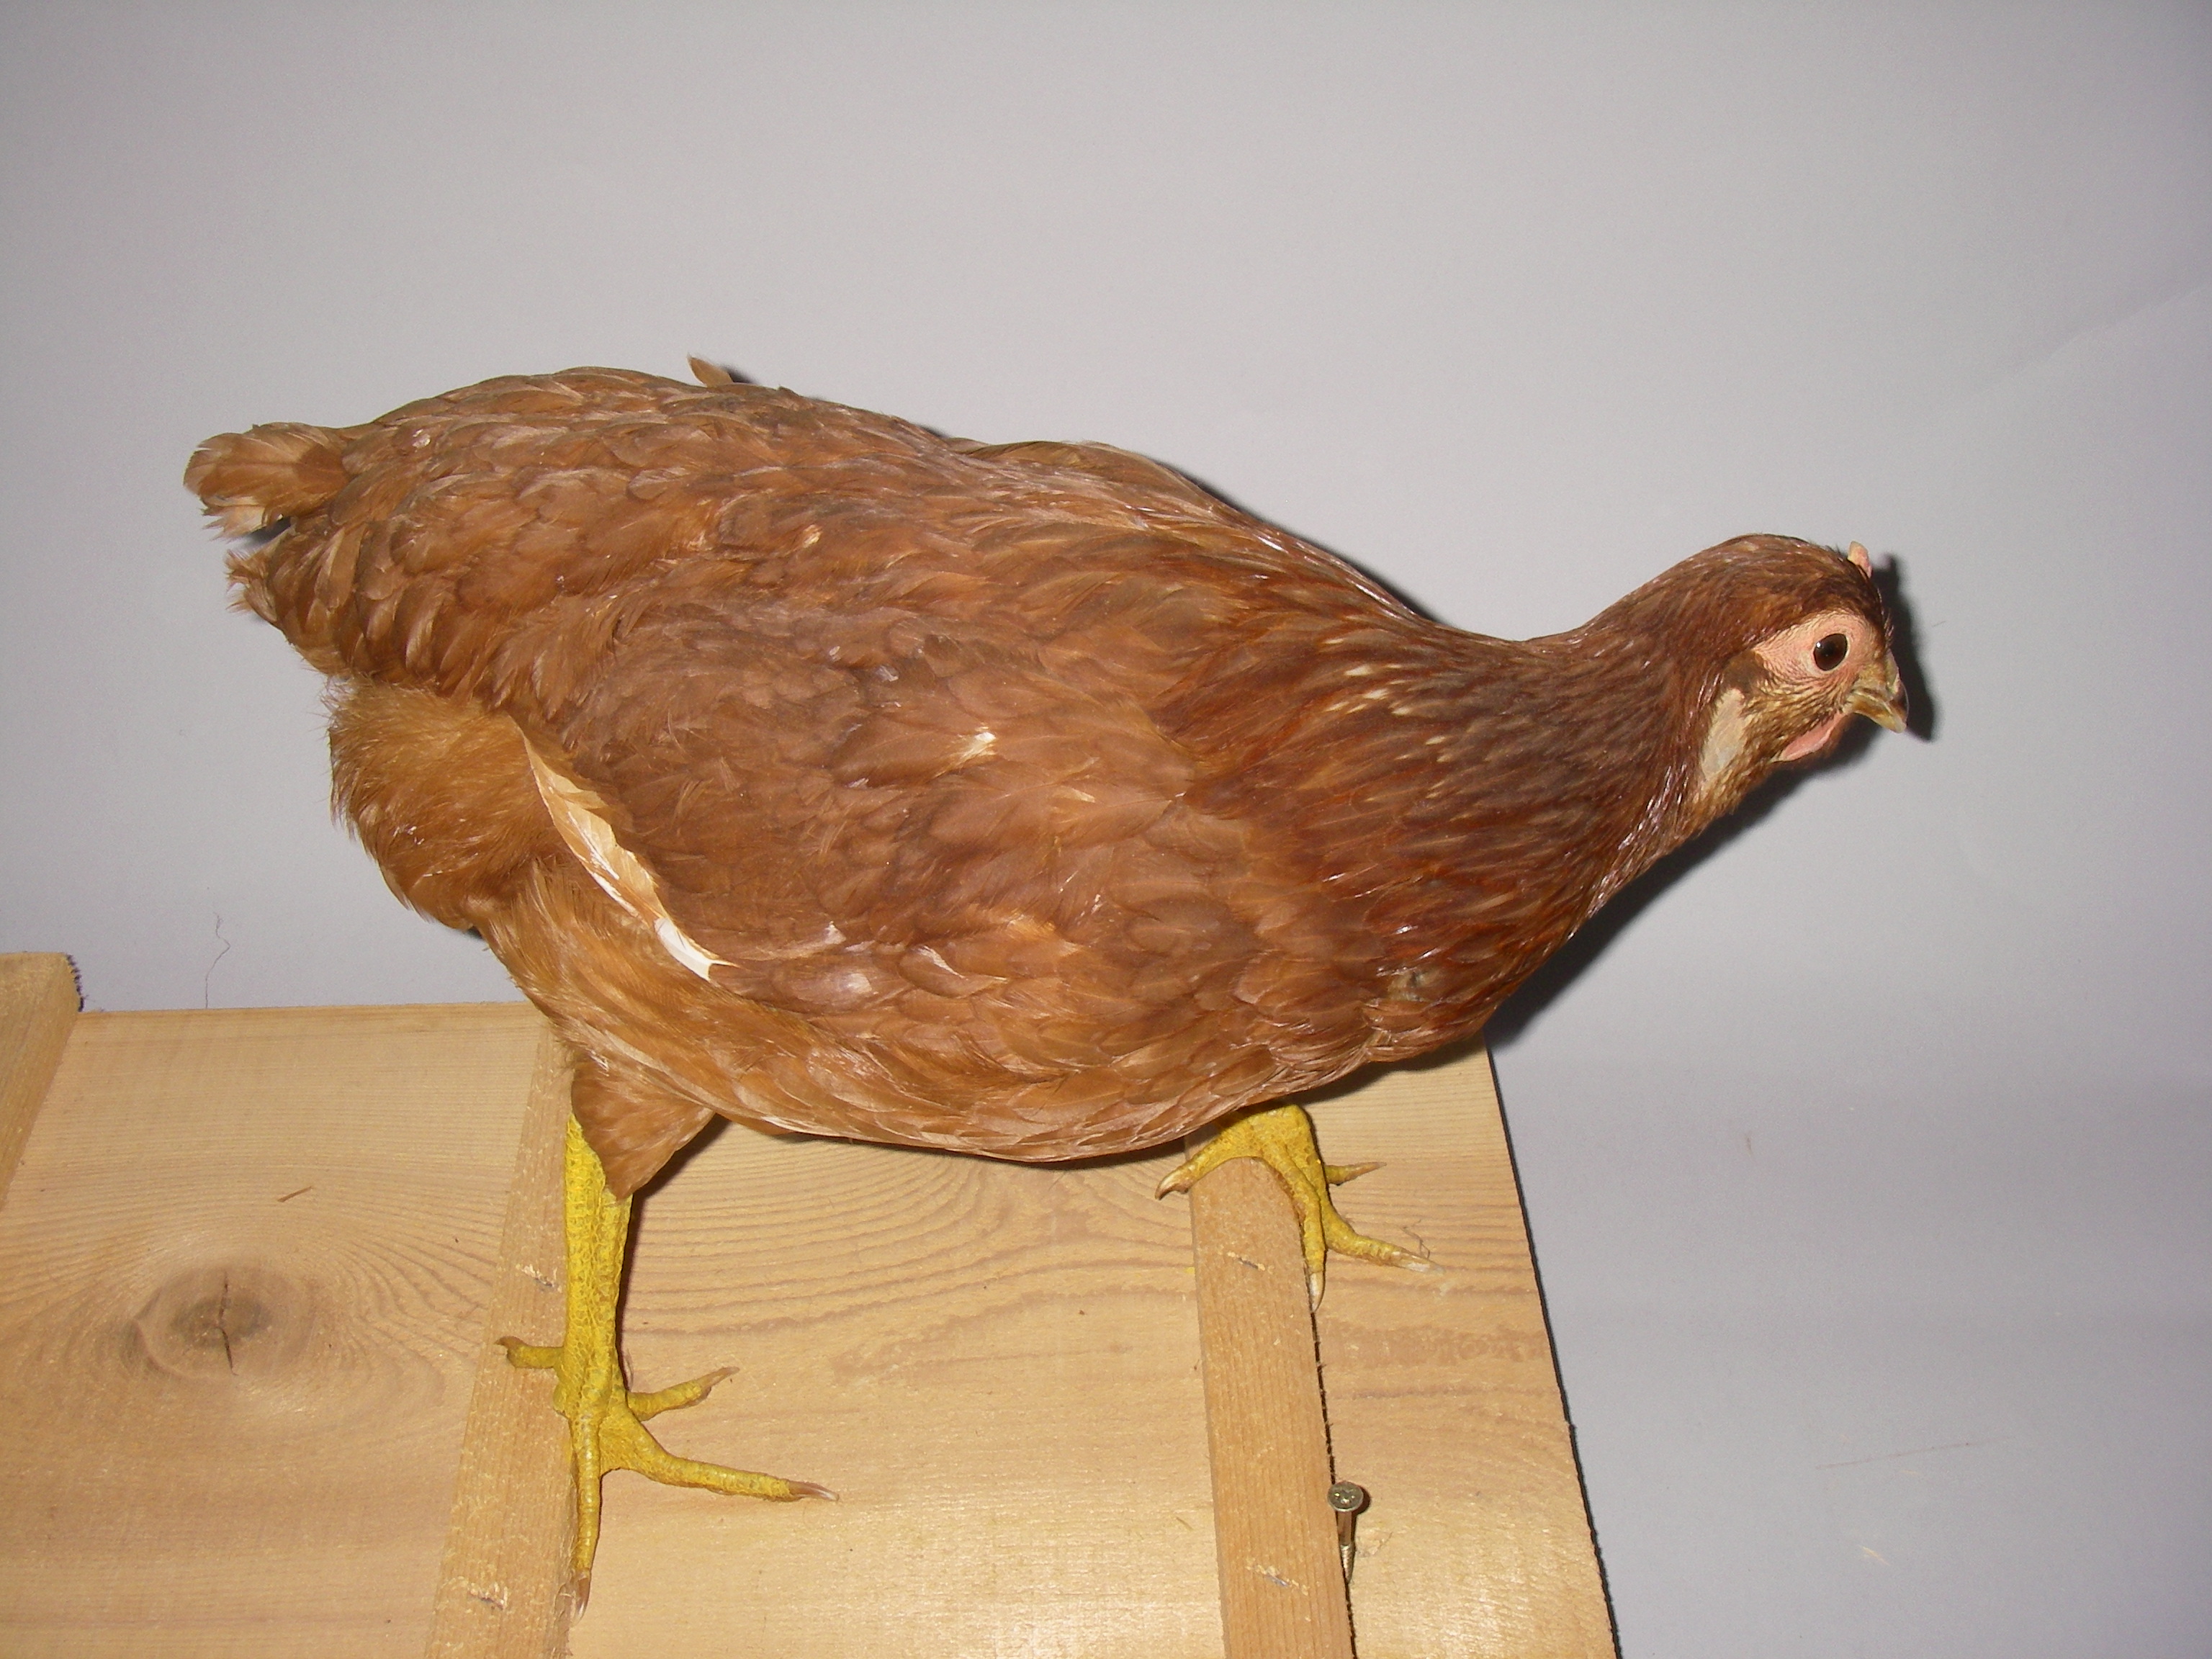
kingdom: Animalia
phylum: Chordata
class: Aves
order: Galliformes
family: Phasianidae
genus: Gallus
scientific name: Gallus gallus
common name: Red junglefowl
